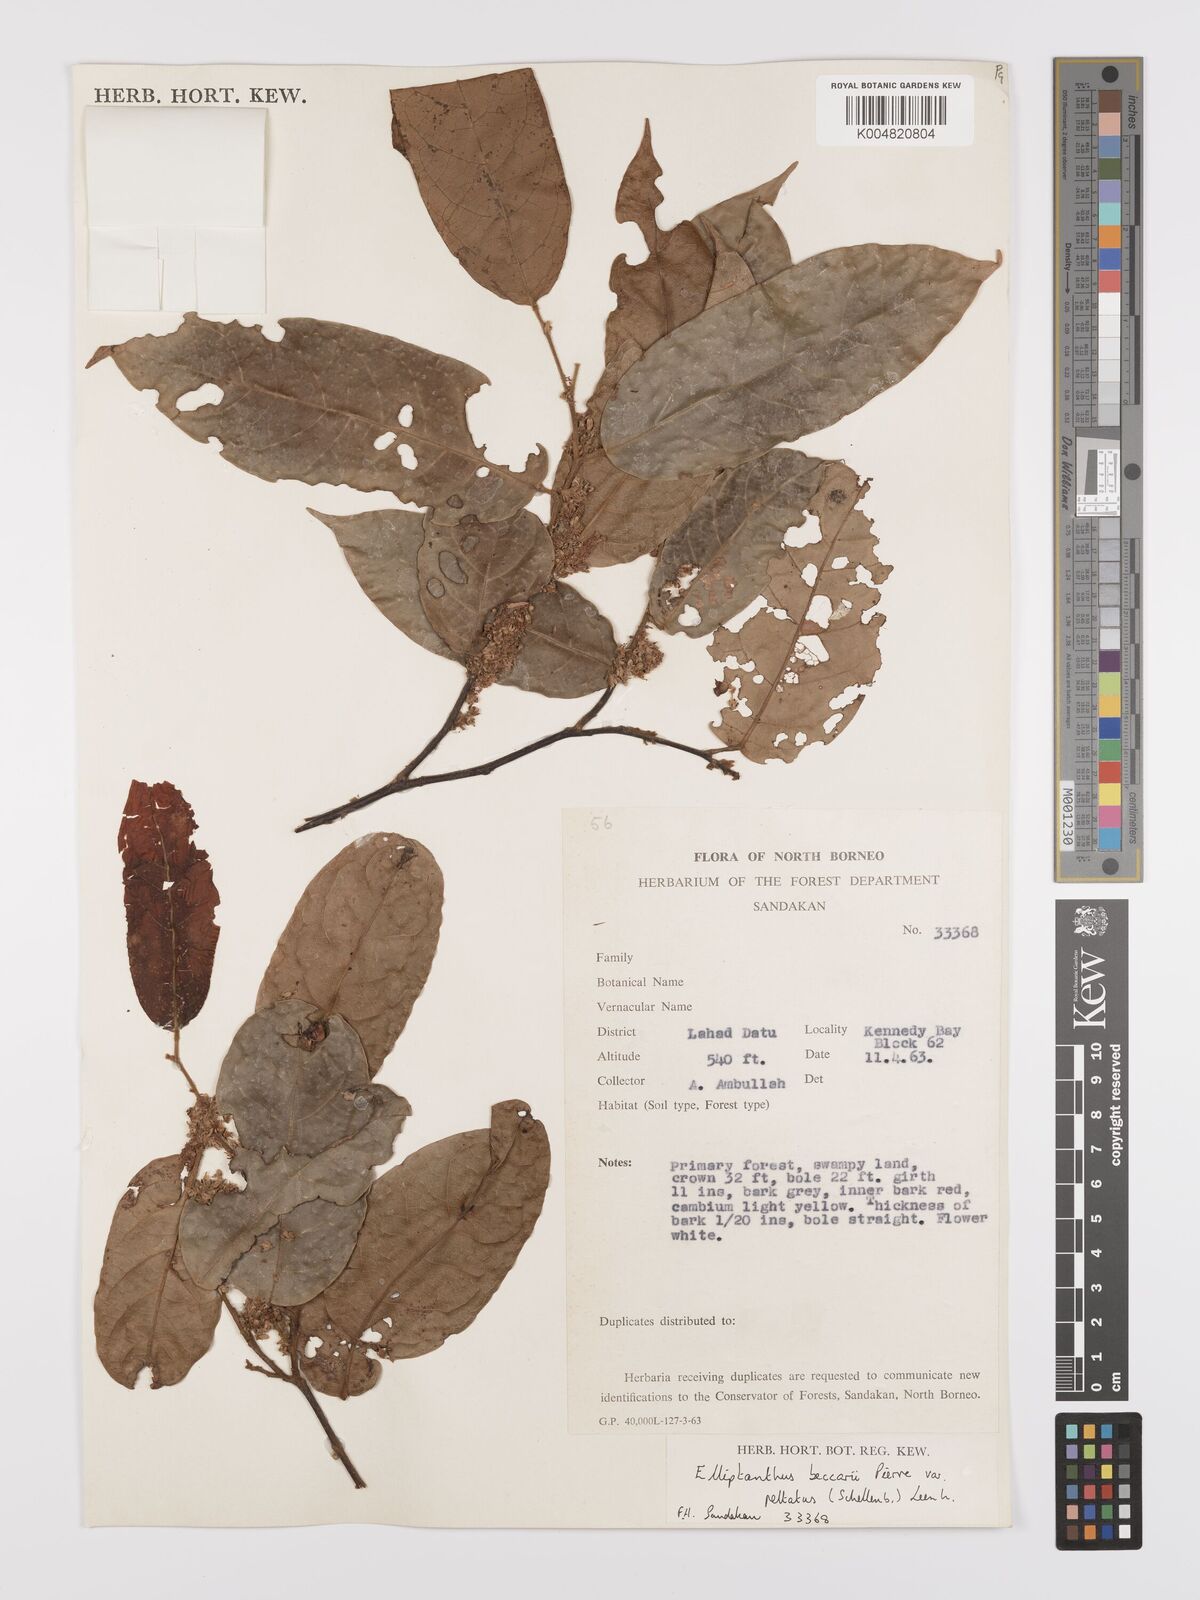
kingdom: Plantae
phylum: Tracheophyta
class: Magnoliopsida
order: Oxalidales
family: Connaraceae
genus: Ellipanthus
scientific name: Ellipanthus beccarii
